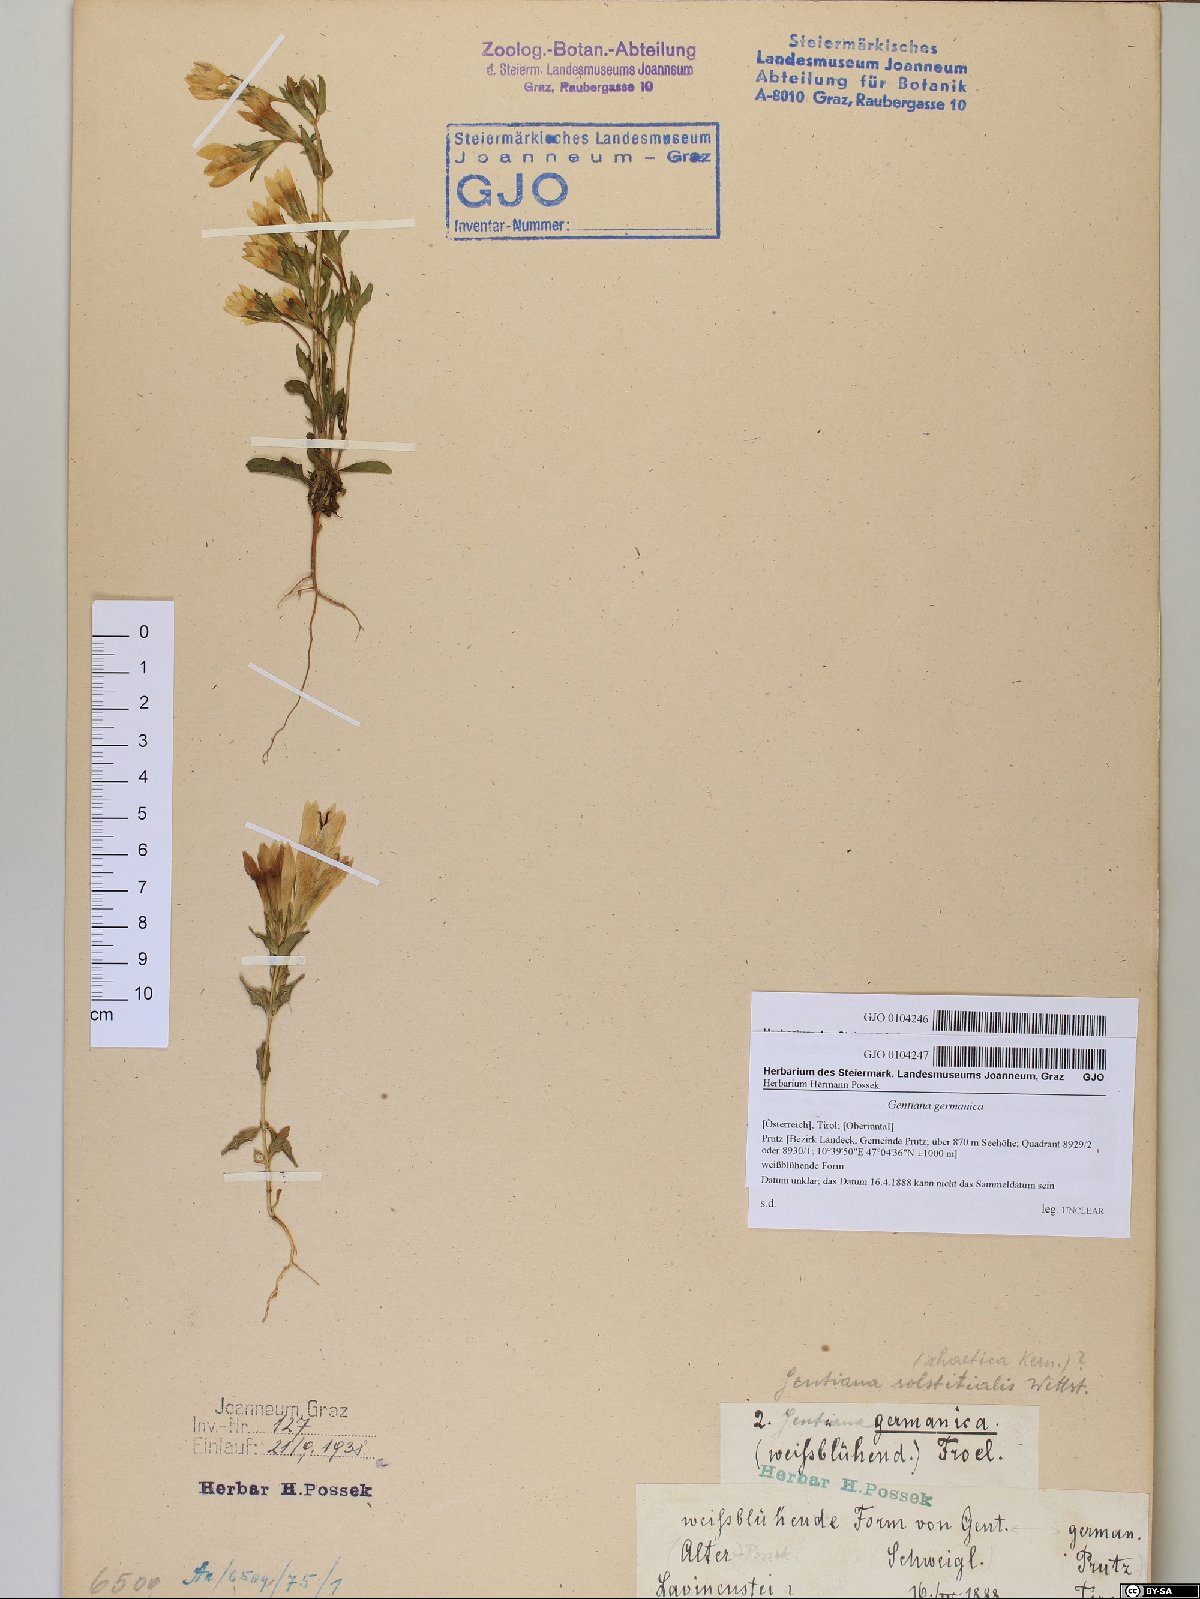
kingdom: Plantae
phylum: Tracheophyta
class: Magnoliopsida
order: Gentianales
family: Gentianaceae
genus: Gentianella
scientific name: Gentianella germanica
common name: Chiltern-gentian
